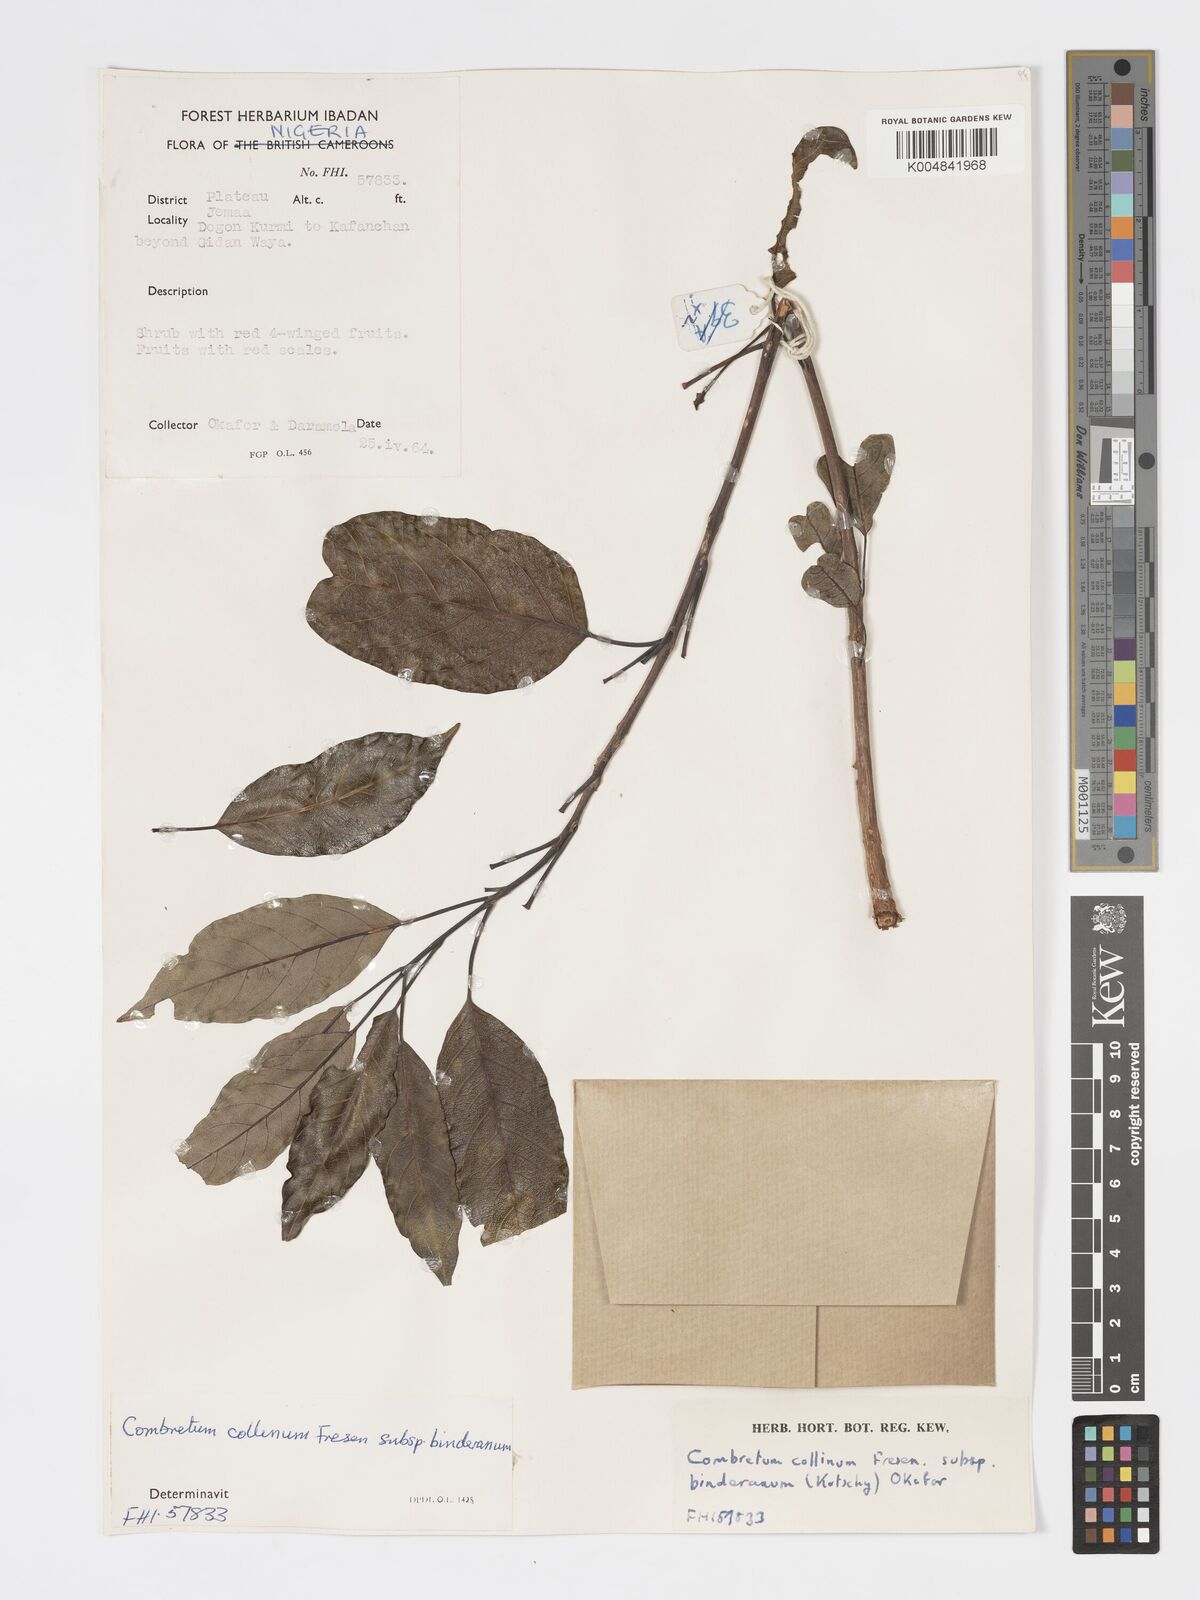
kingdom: Plantae
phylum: Tracheophyta
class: Magnoliopsida
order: Myrtales
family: Combretaceae
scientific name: Combretaceae
